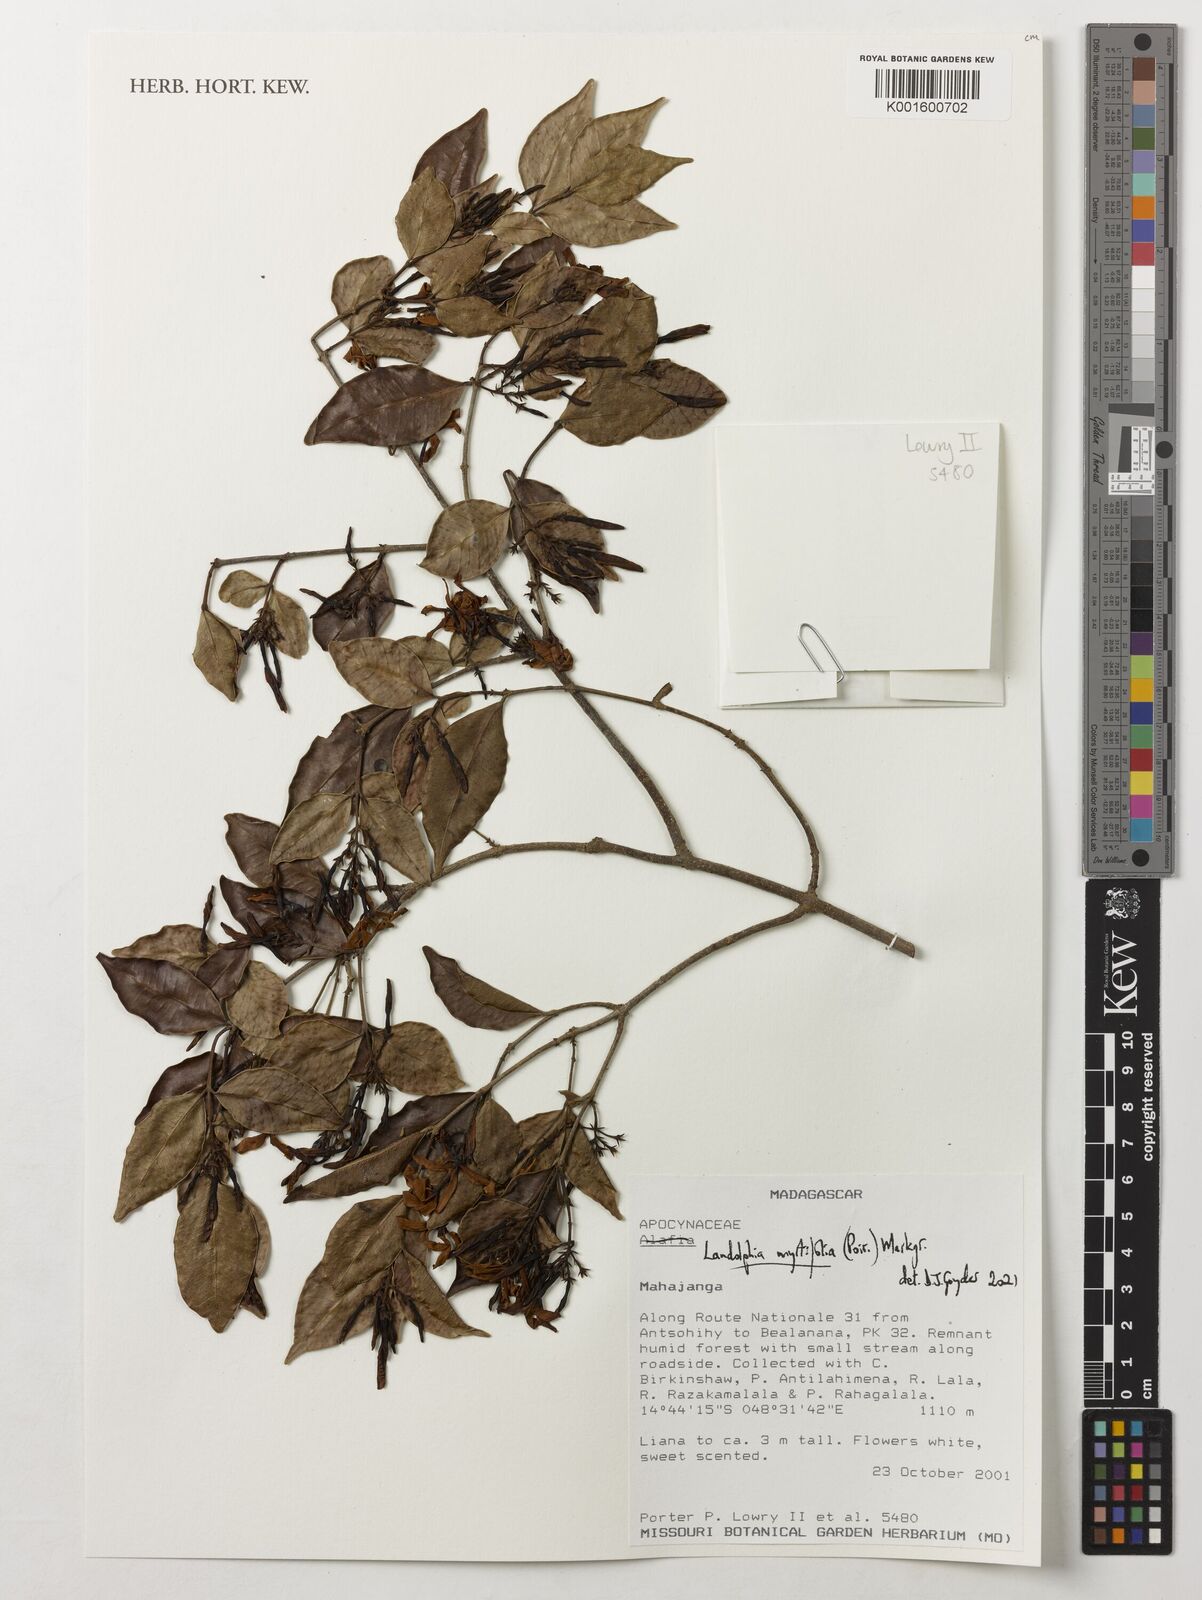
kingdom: Plantae
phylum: Tracheophyta
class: Magnoliopsida
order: Gentianales
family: Apocynaceae
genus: Landolphia
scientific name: Landolphia myrtifolia
